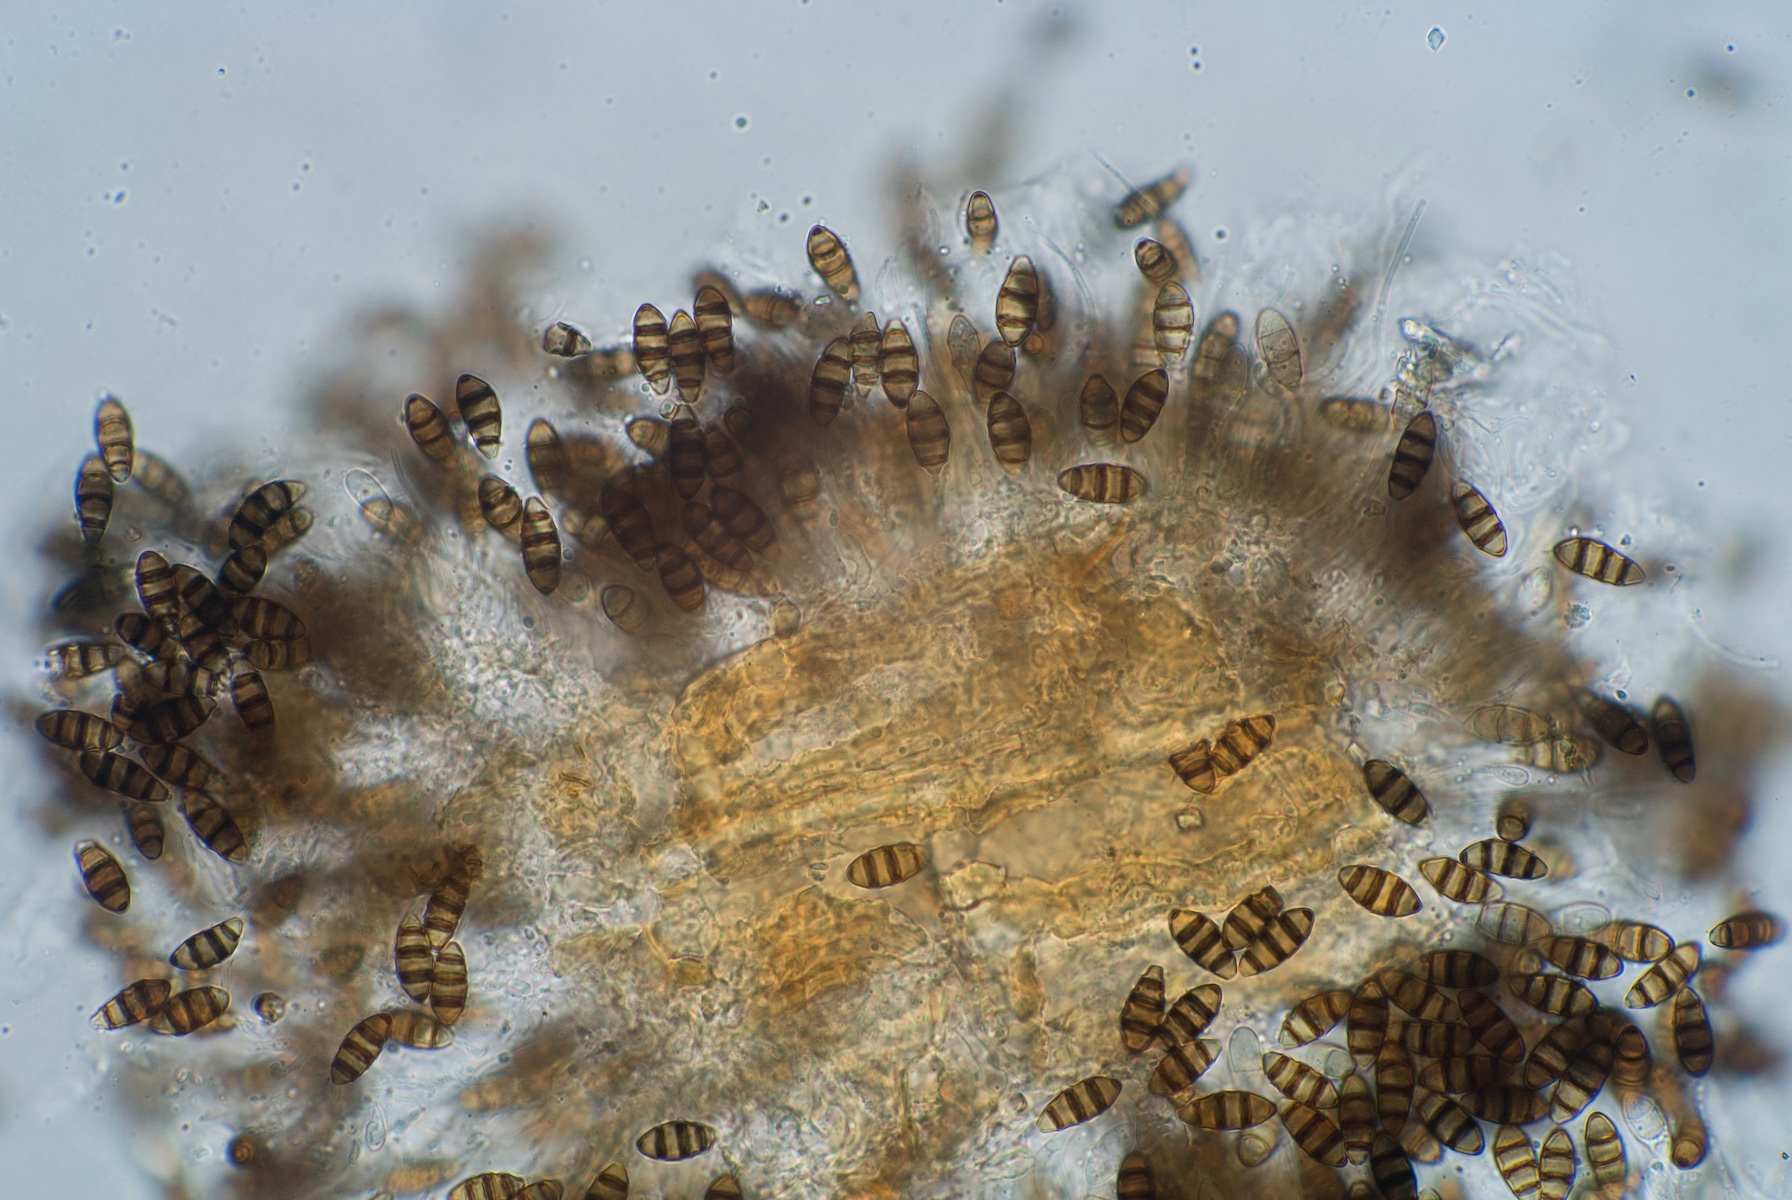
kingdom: Fungi
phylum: Ascomycota
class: Sordariomycetes
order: Amphisphaeriales
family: Sporocadaceae
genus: Discostroma
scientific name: Discostroma corticola
